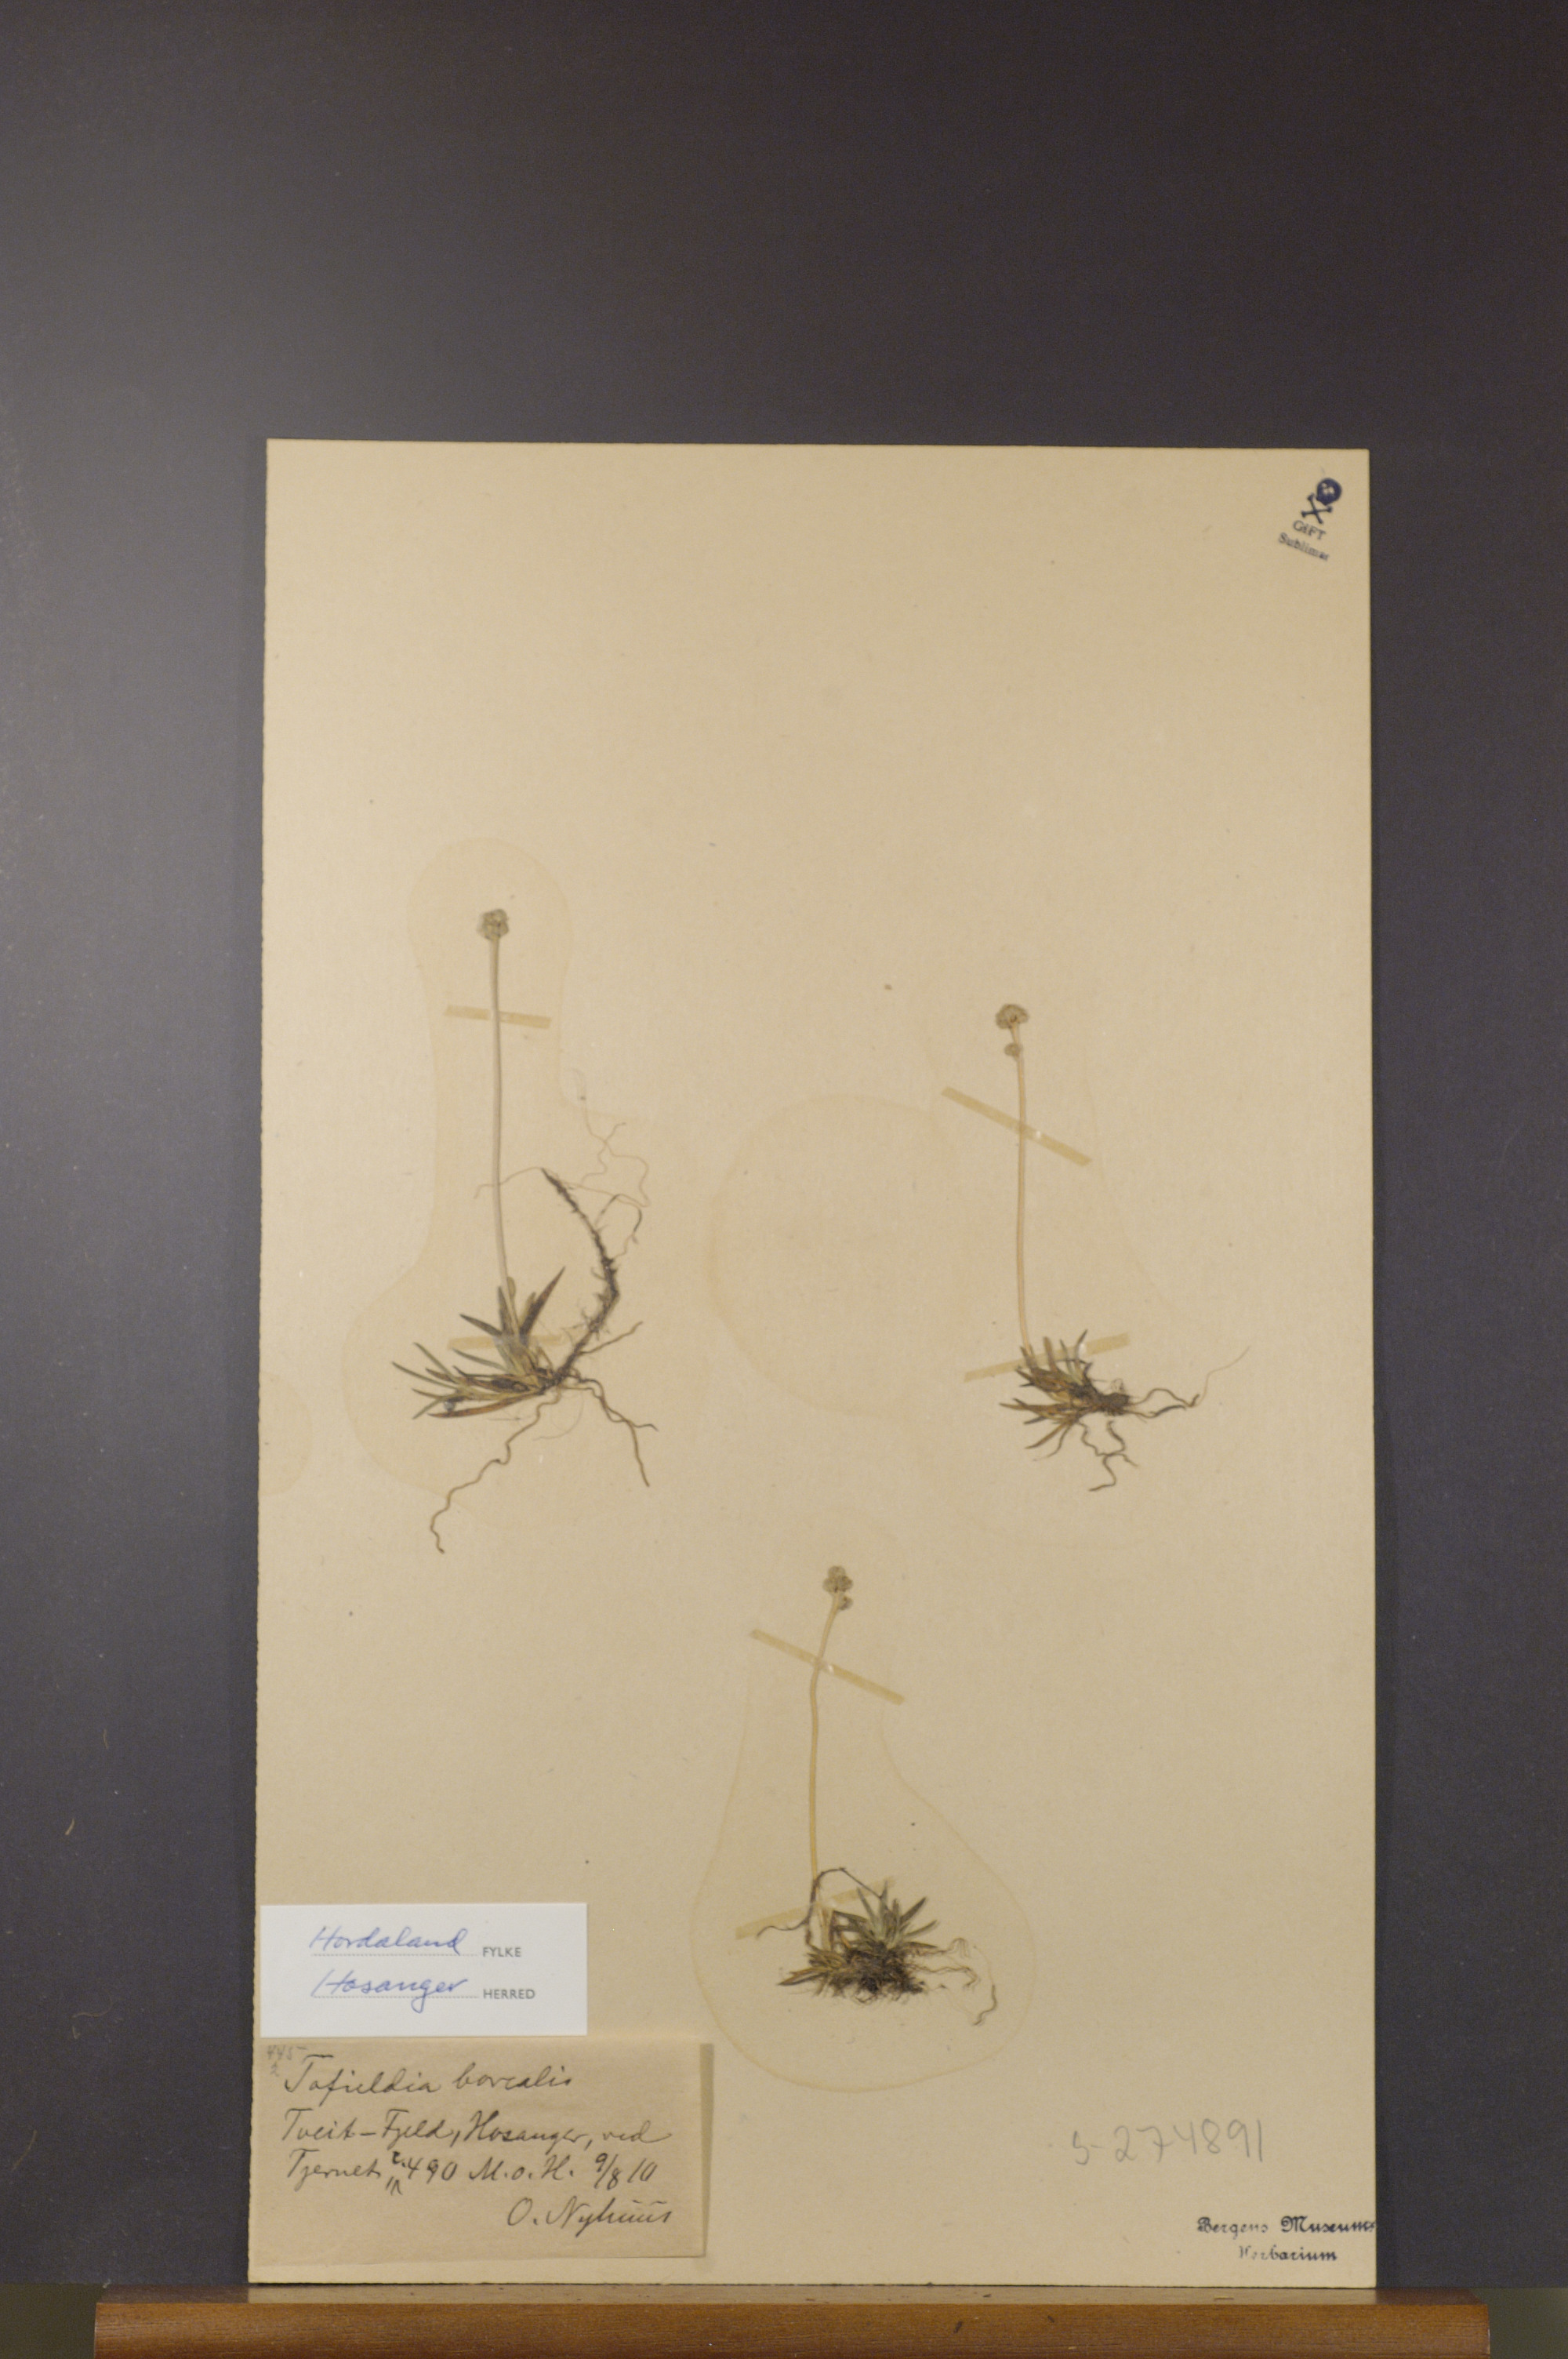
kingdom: Plantae
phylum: Tracheophyta
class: Liliopsida
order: Alismatales
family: Tofieldiaceae
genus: Tofieldia
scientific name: Tofieldia pusilla
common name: Scottish false asphodel
